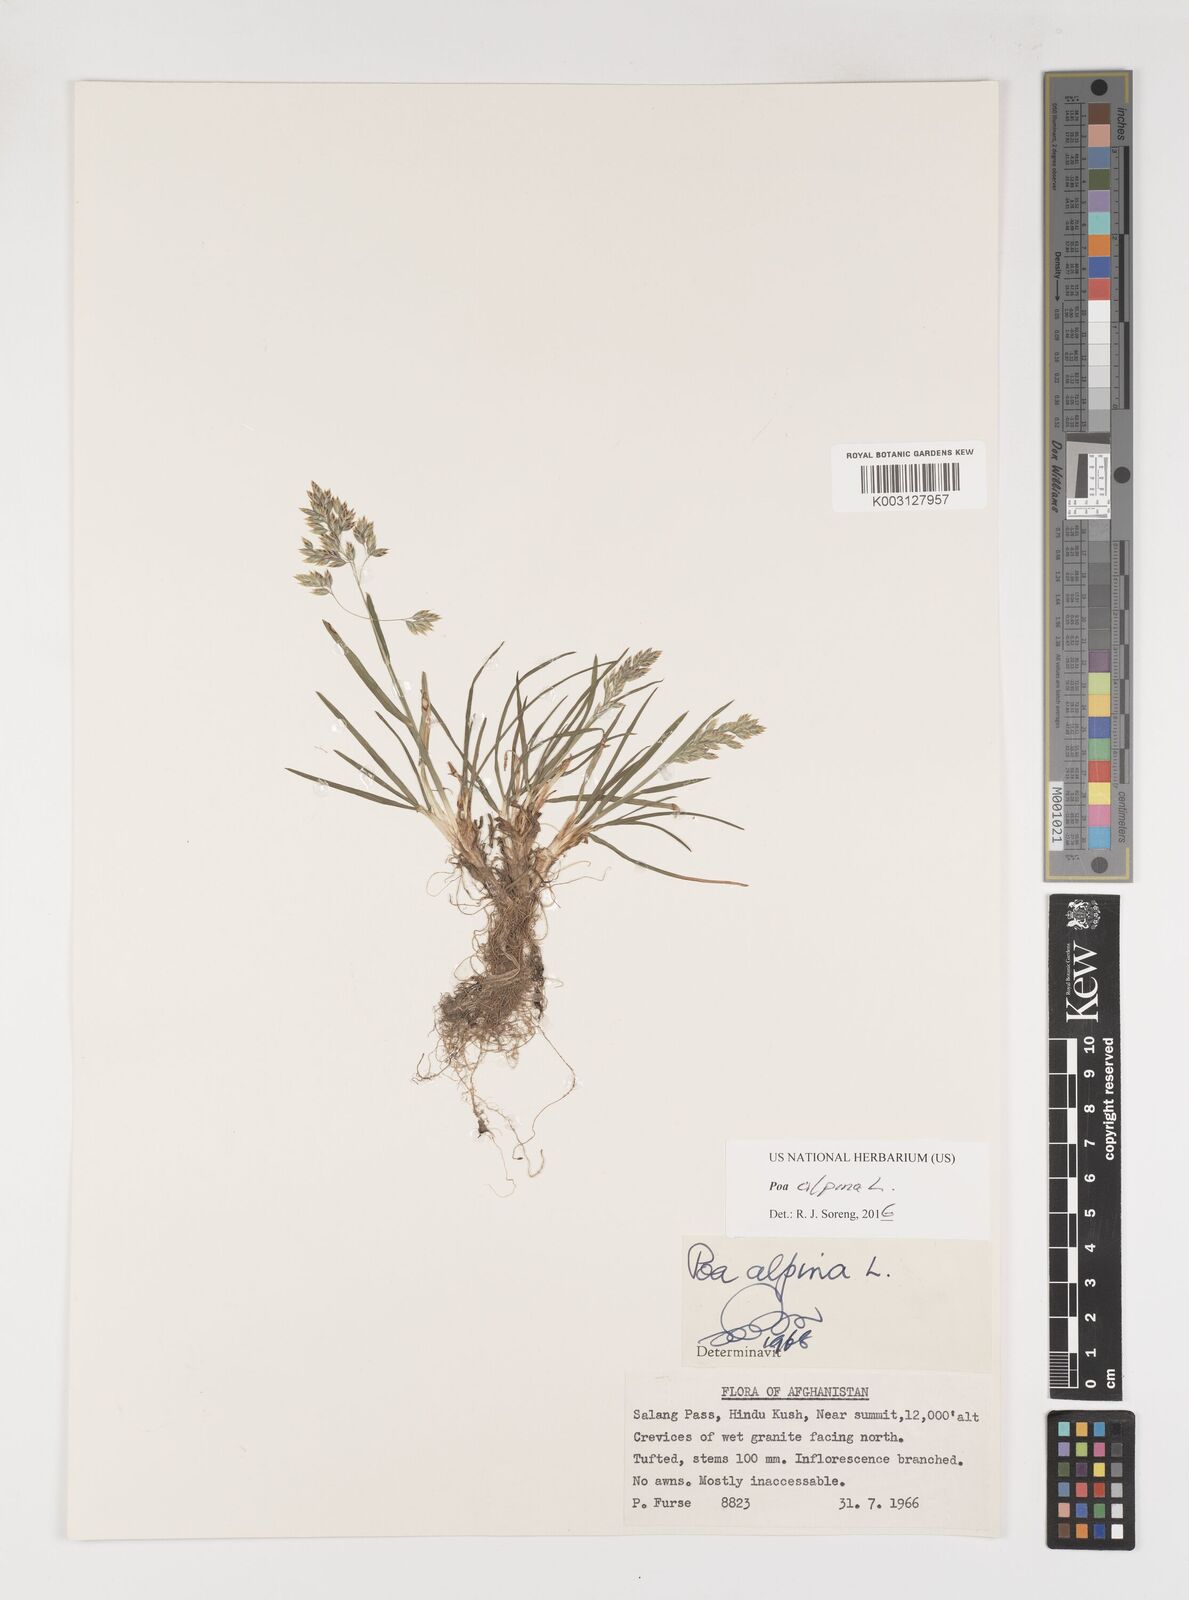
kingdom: Plantae
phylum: Tracheophyta
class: Liliopsida
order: Poales
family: Poaceae
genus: Poa
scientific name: Poa alpina
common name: Alpine bluegrass
